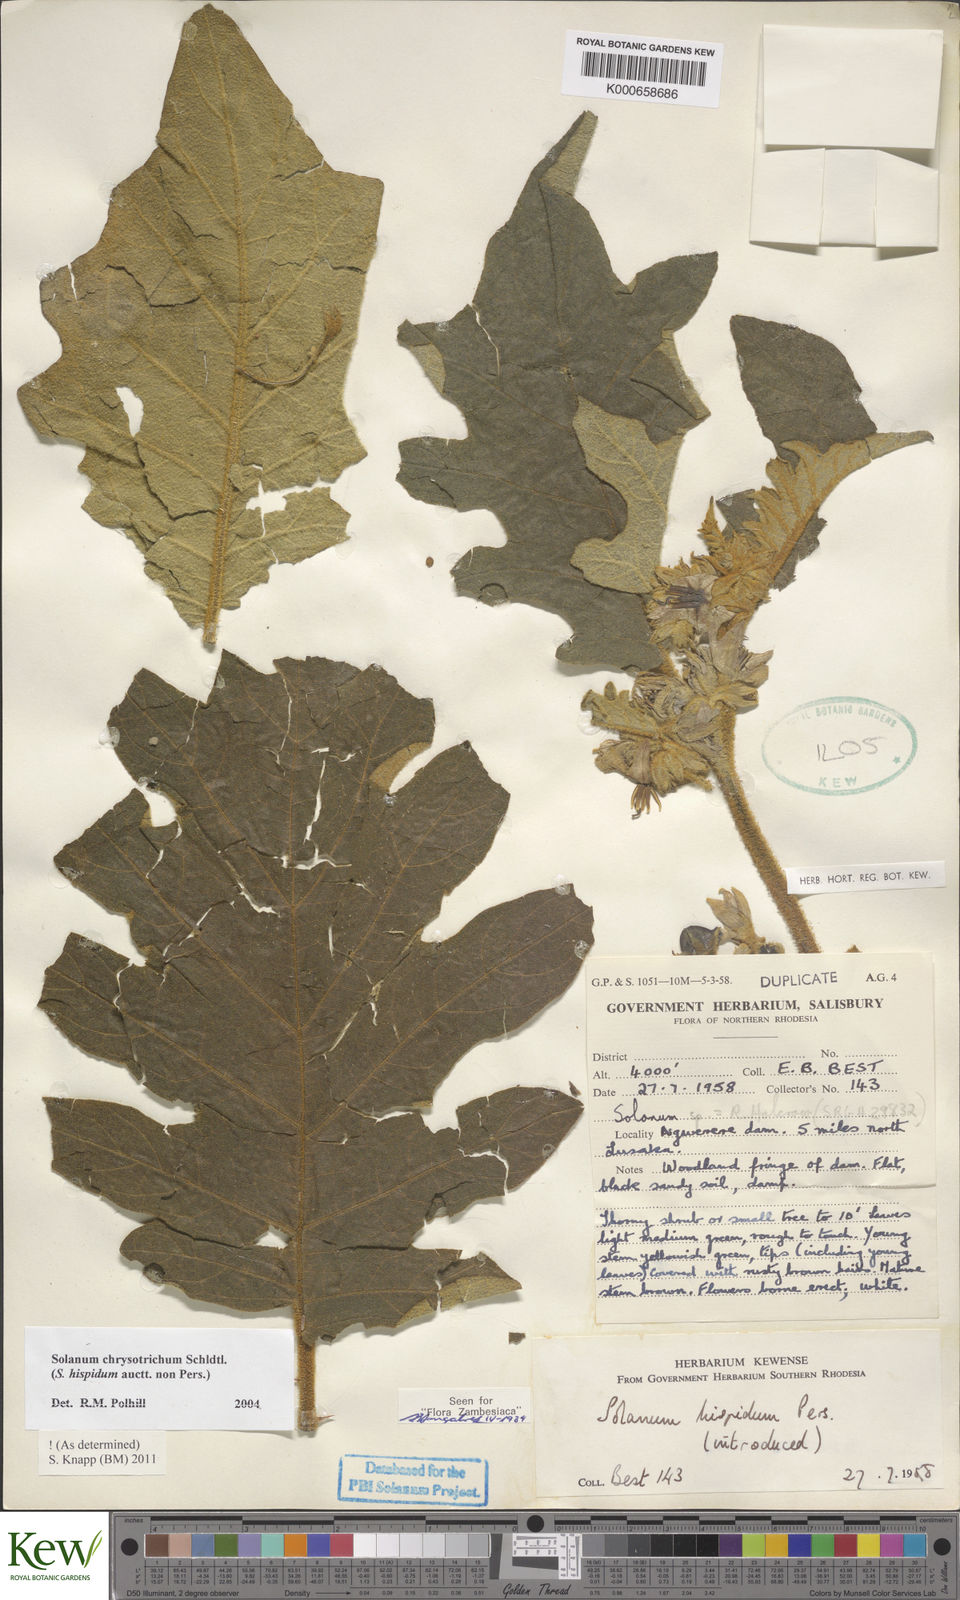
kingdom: Plantae
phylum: Tracheophyta
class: Magnoliopsida
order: Solanales
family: Solanaceae
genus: Solanum
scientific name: Solanum chrysotrichum
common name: Nightshade
